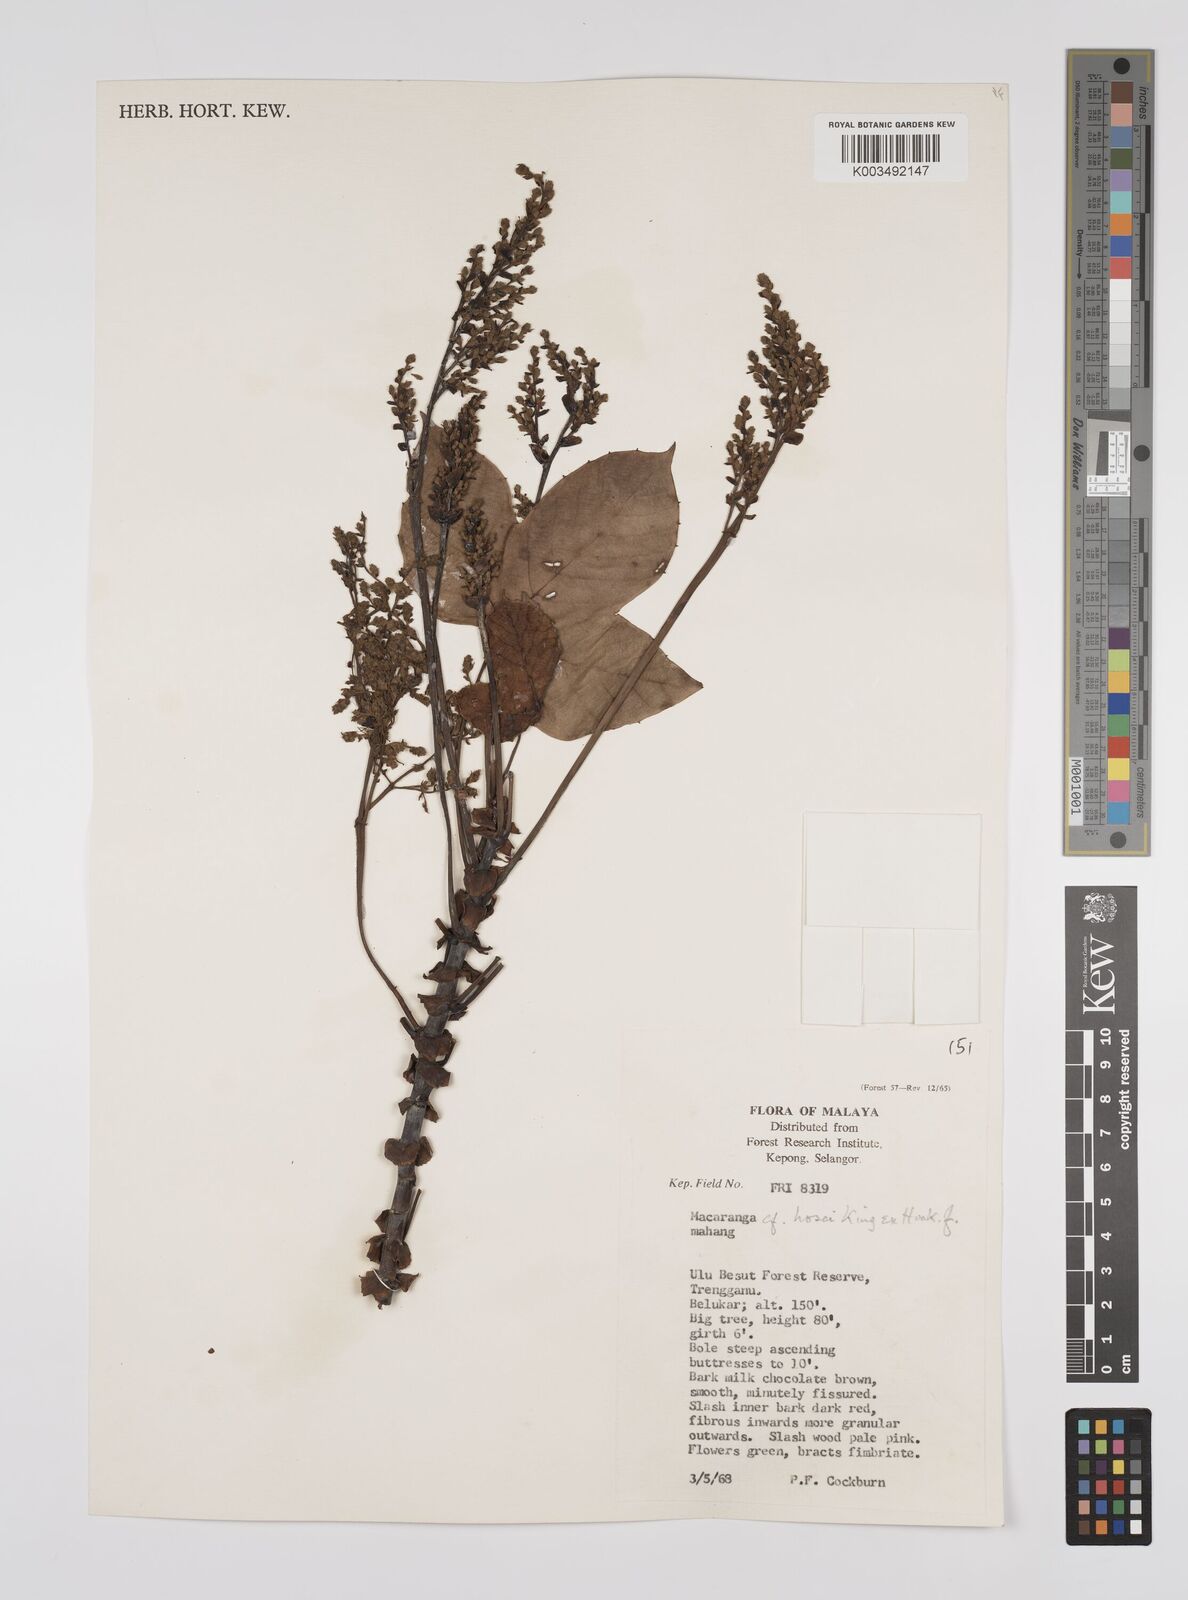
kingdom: Plantae
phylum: Tracheophyta
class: Magnoliopsida
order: Malpighiales
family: Euphorbiaceae
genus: Macaranga
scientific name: Macaranga hosei
